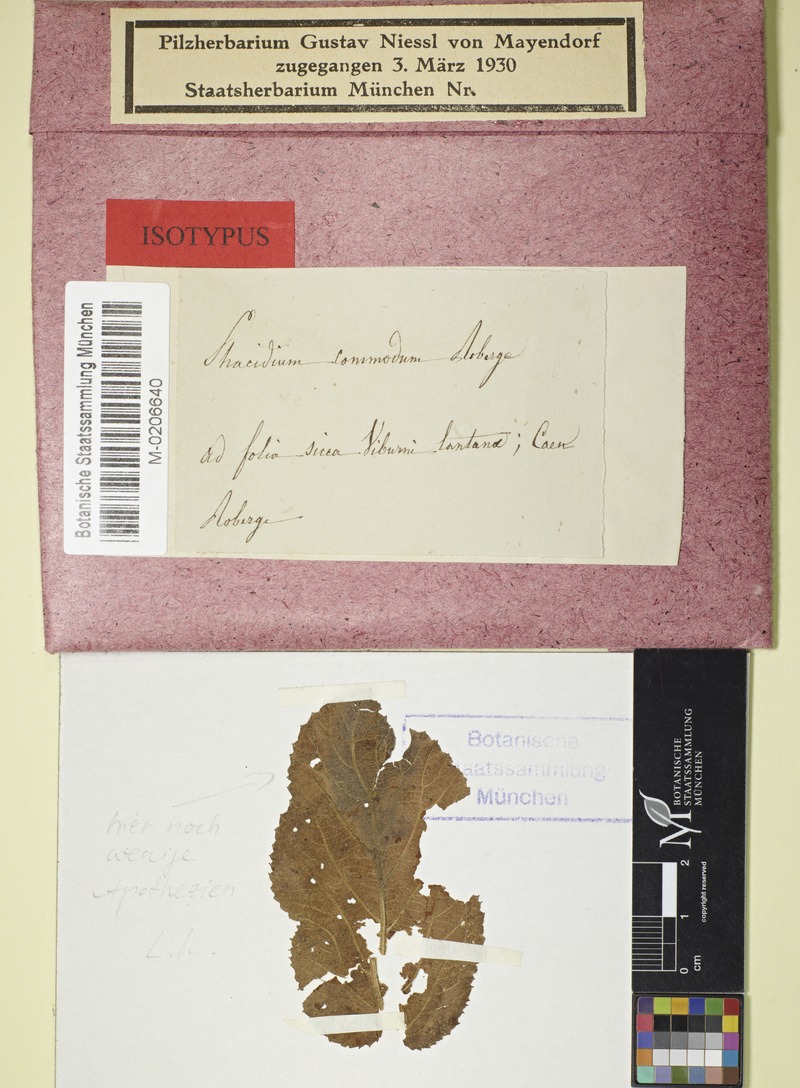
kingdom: Fungi
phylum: Ascomycota
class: Leotiomycetes
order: Helotiales
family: Ploettnerulaceae
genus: Pyrenopeziza
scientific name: Pyrenopeziza commoda
